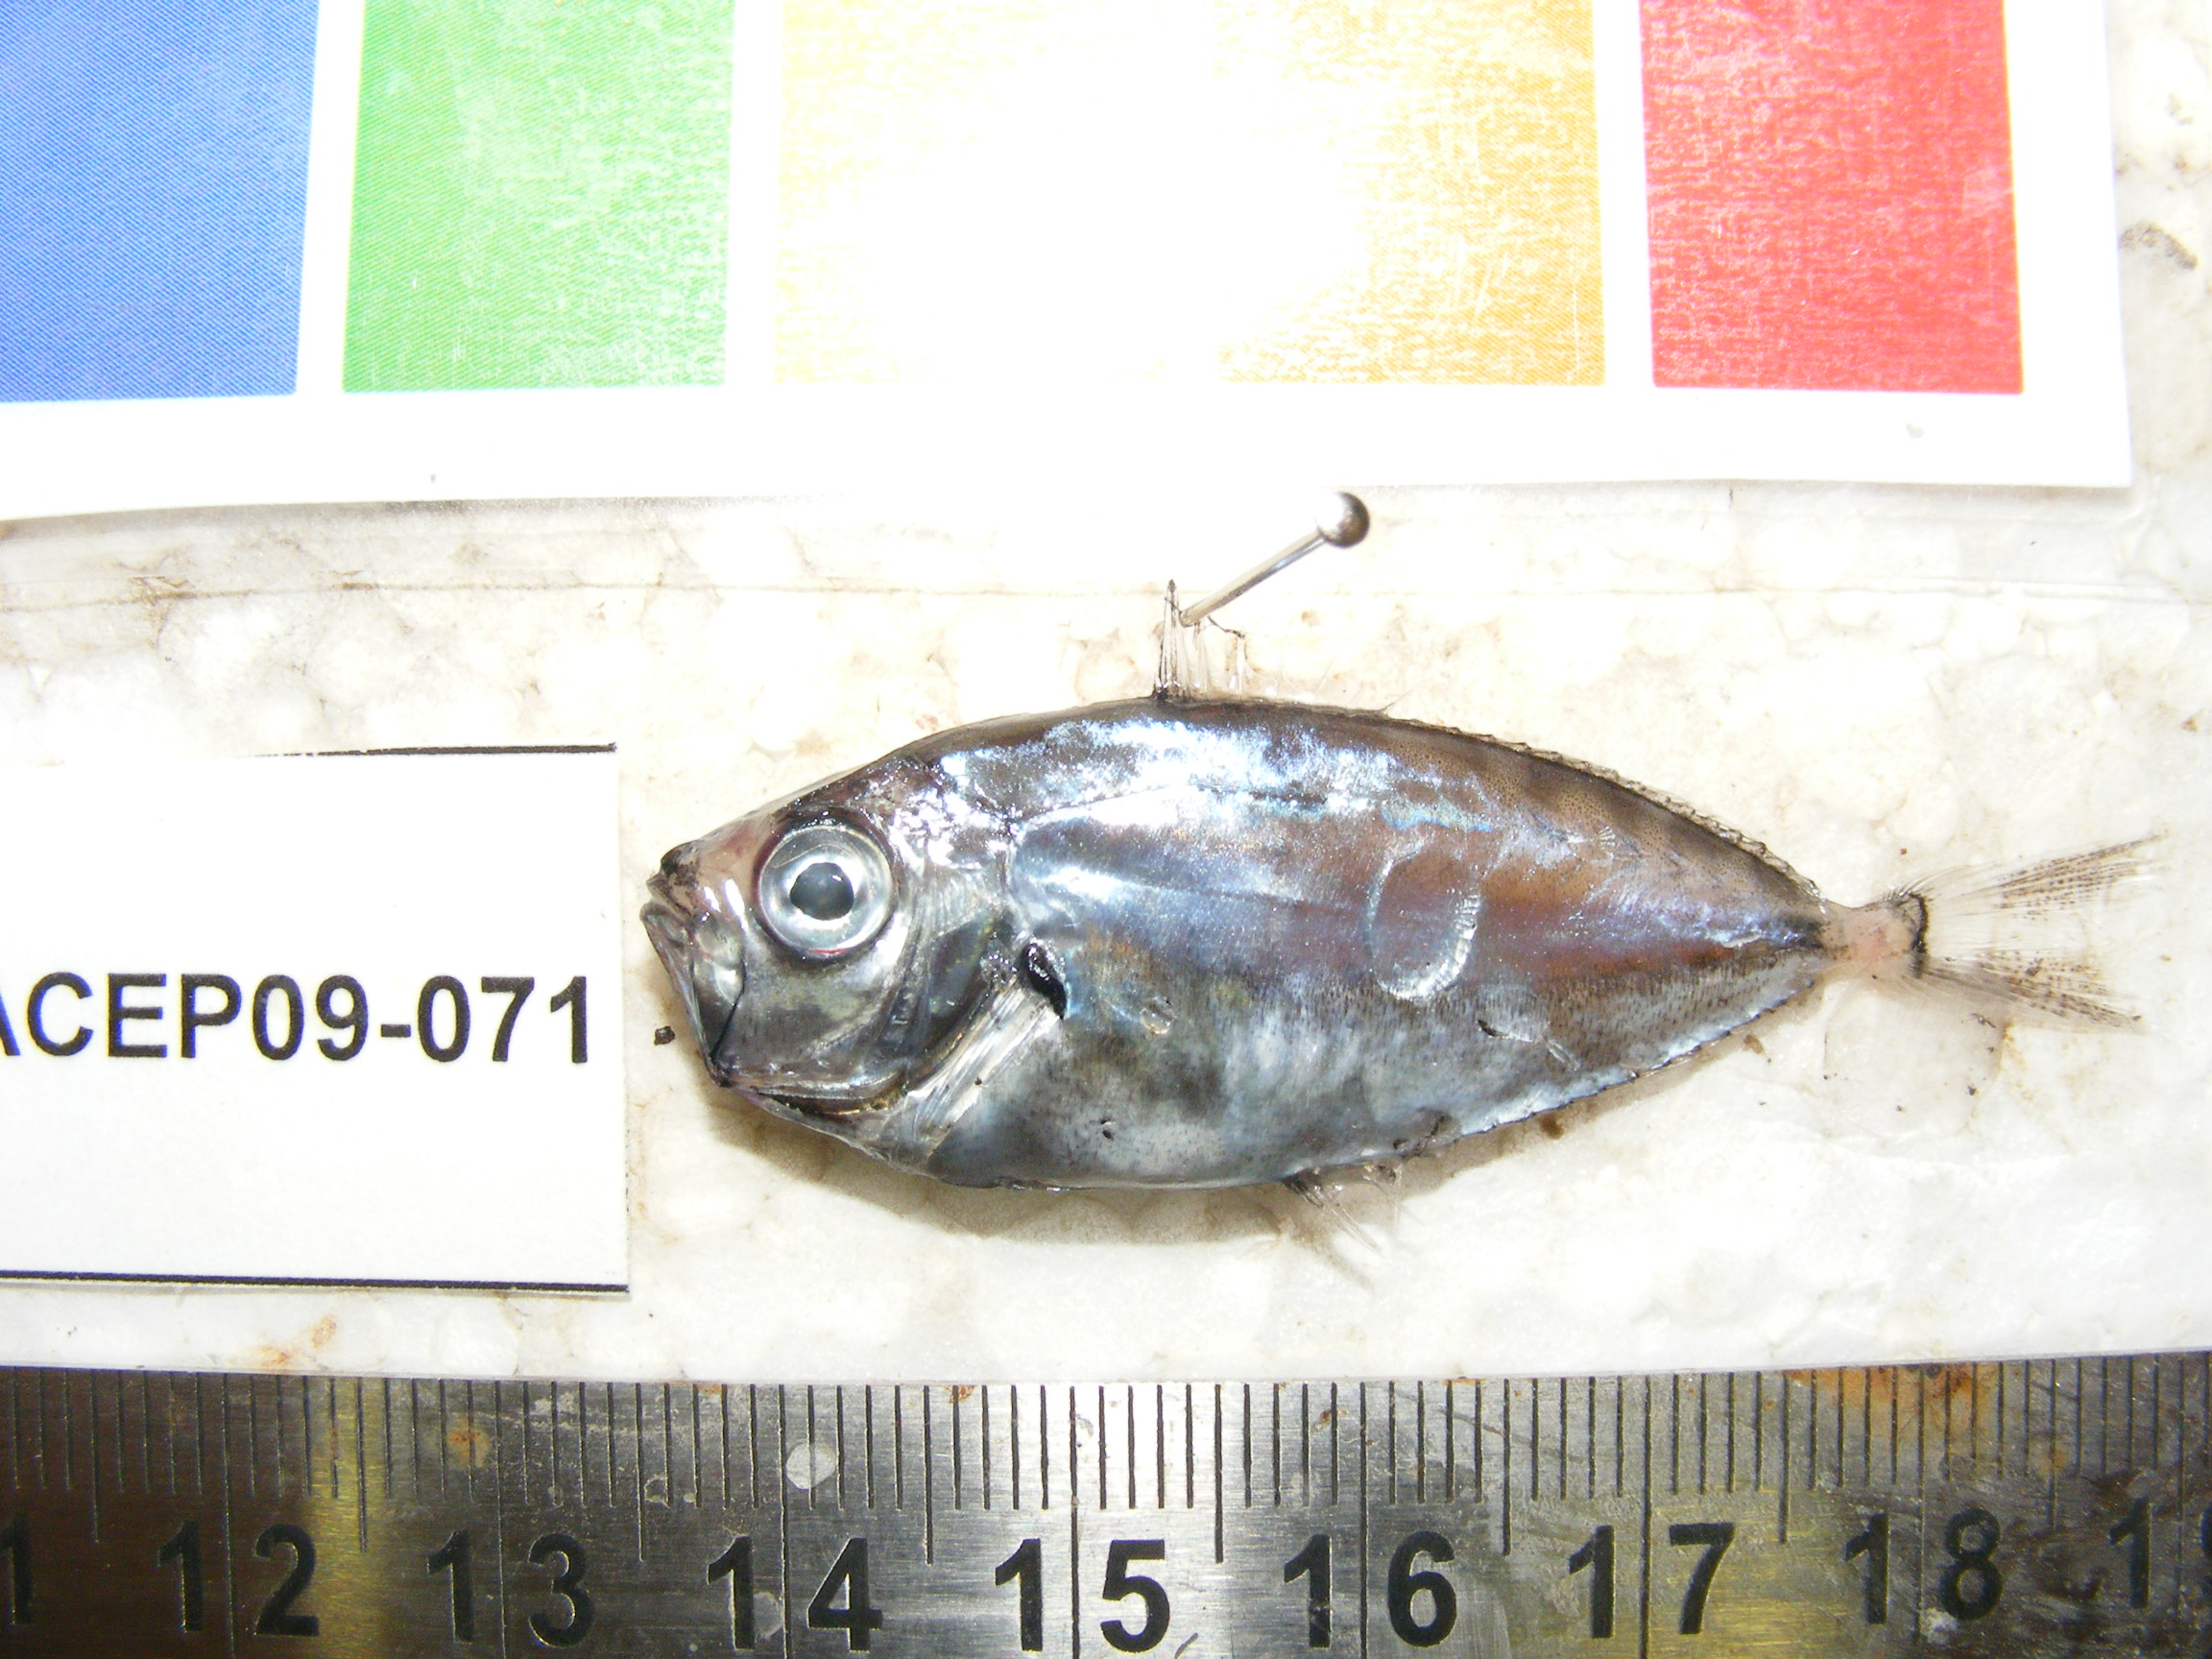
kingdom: Animalia
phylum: Chordata
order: Perciformes
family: Leiognathidae
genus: Secutor
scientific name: Secutor ruconius
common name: Deep pugnose ponyfish
